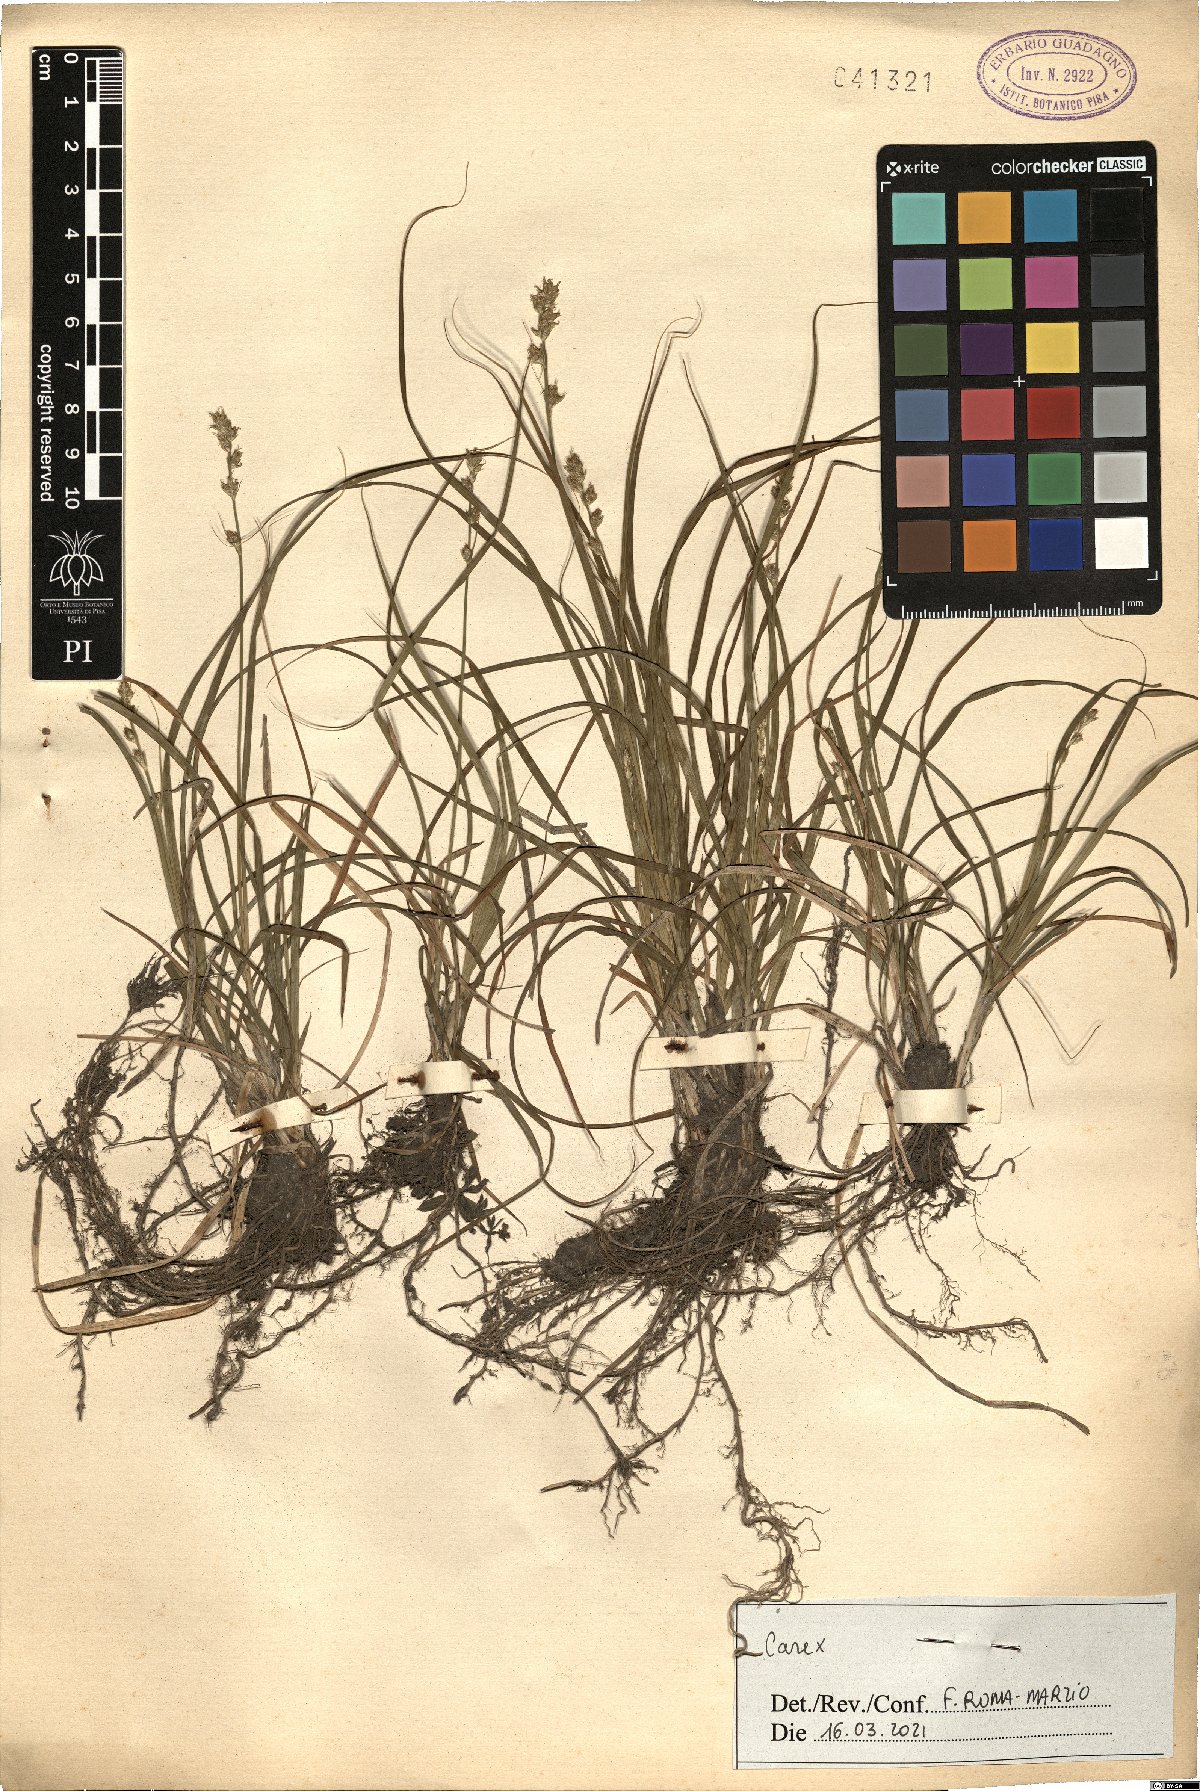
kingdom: Plantae
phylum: Tracheophyta
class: Liliopsida
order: Poales
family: Cyperaceae
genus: Carex
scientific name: Carex
